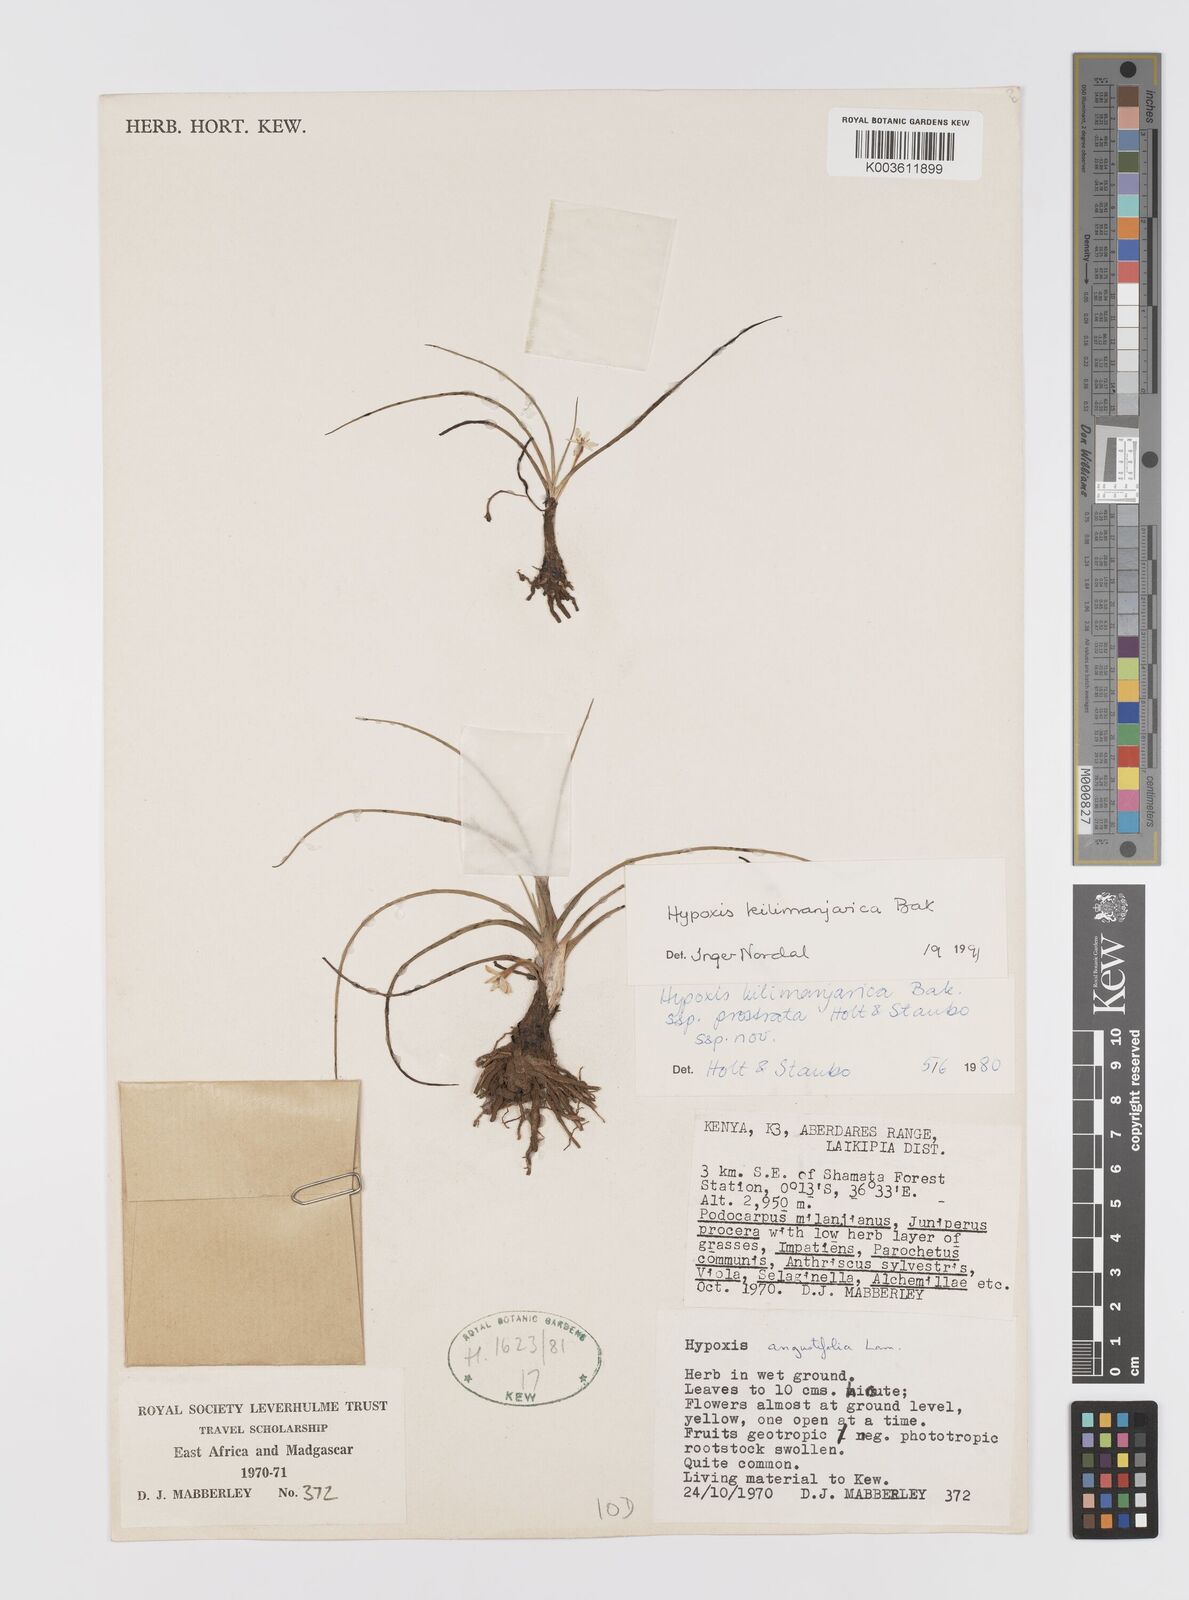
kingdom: Plantae
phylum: Tracheophyta
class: Liliopsida
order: Asparagales
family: Hypoxidaceae
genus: Hypoxis
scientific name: Hypoxis kilimanjarica
